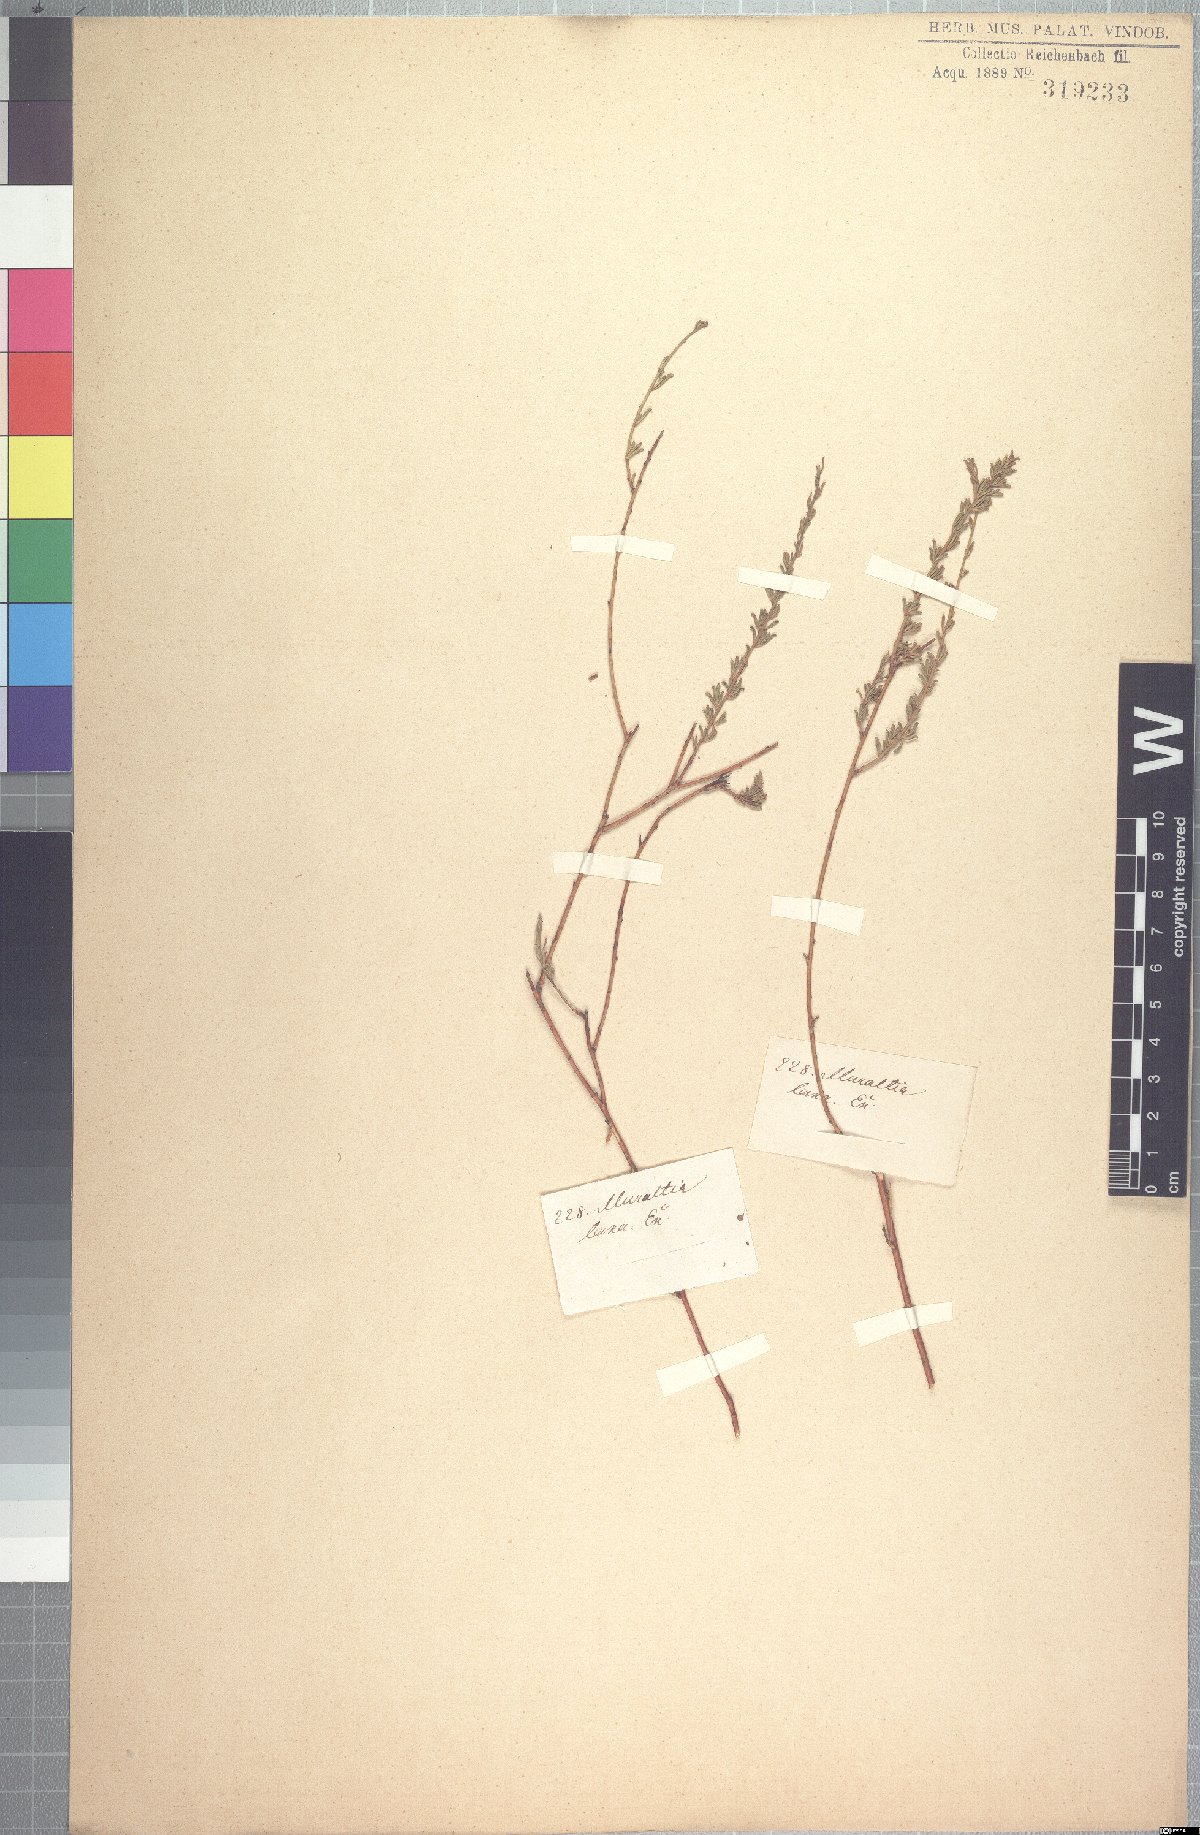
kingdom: Plantae
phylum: Tracheophyta
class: Magnoliopsida
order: Fabales
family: Polygalaceae
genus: Muraltia
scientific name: Muraltia rhamnoides
